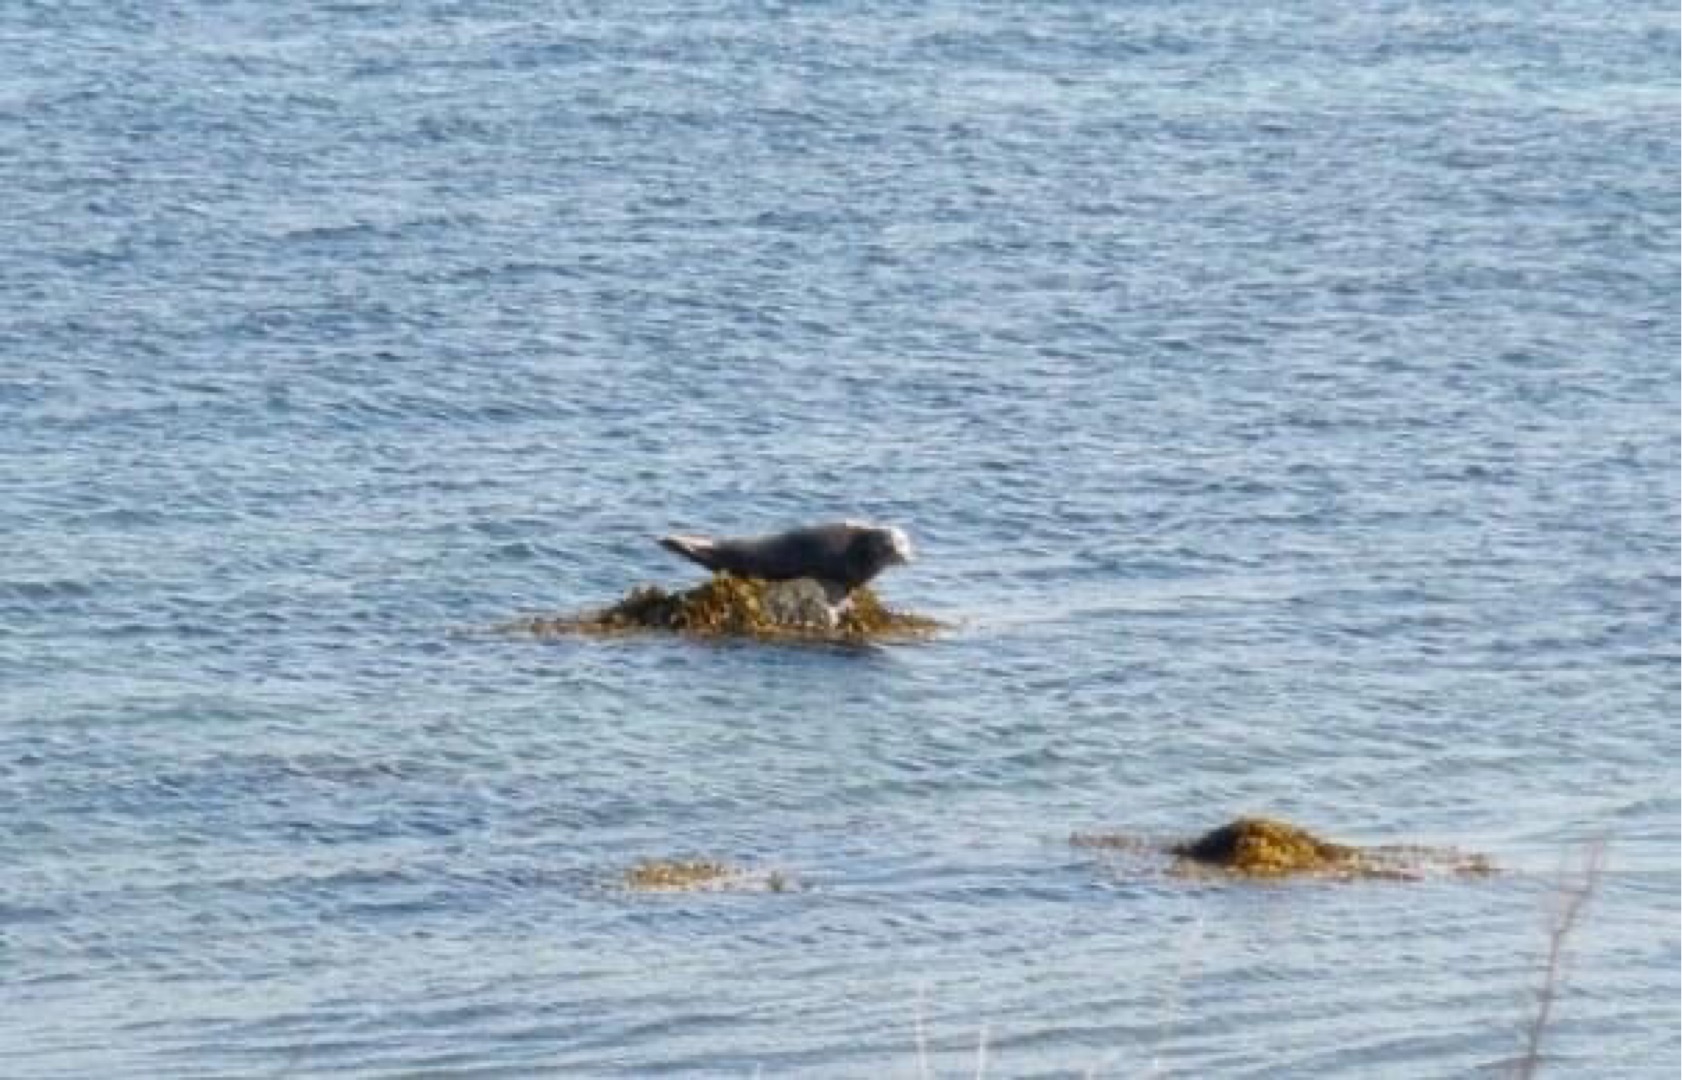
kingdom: Animalia
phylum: Chordata
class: Mammalia
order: Carnivora
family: Phocidae
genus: Phoca
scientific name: Phoca vitulina
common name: Spættet sæl
